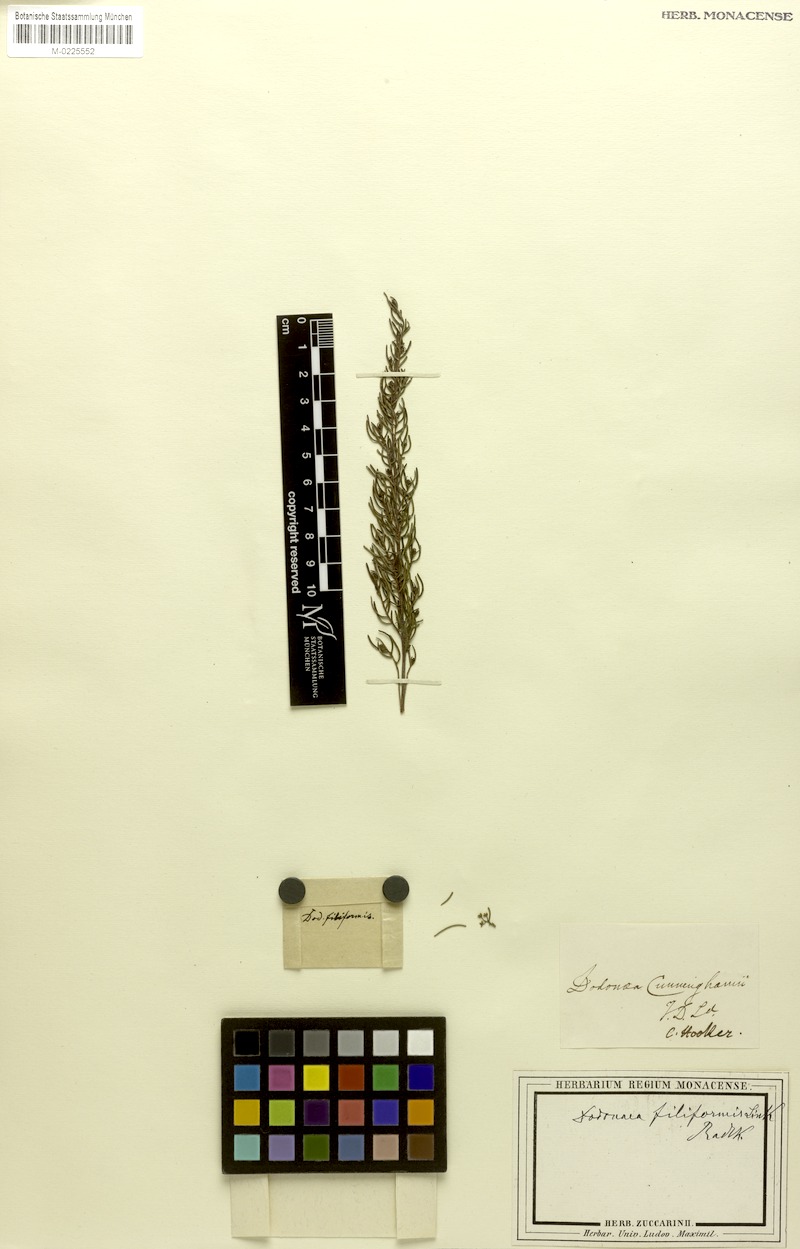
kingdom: Plantae
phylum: Tracheophyta
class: Magnoliopsida
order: Sapindales
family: Sapindaceae
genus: Dodonaea
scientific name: Dodonaea filiformis
